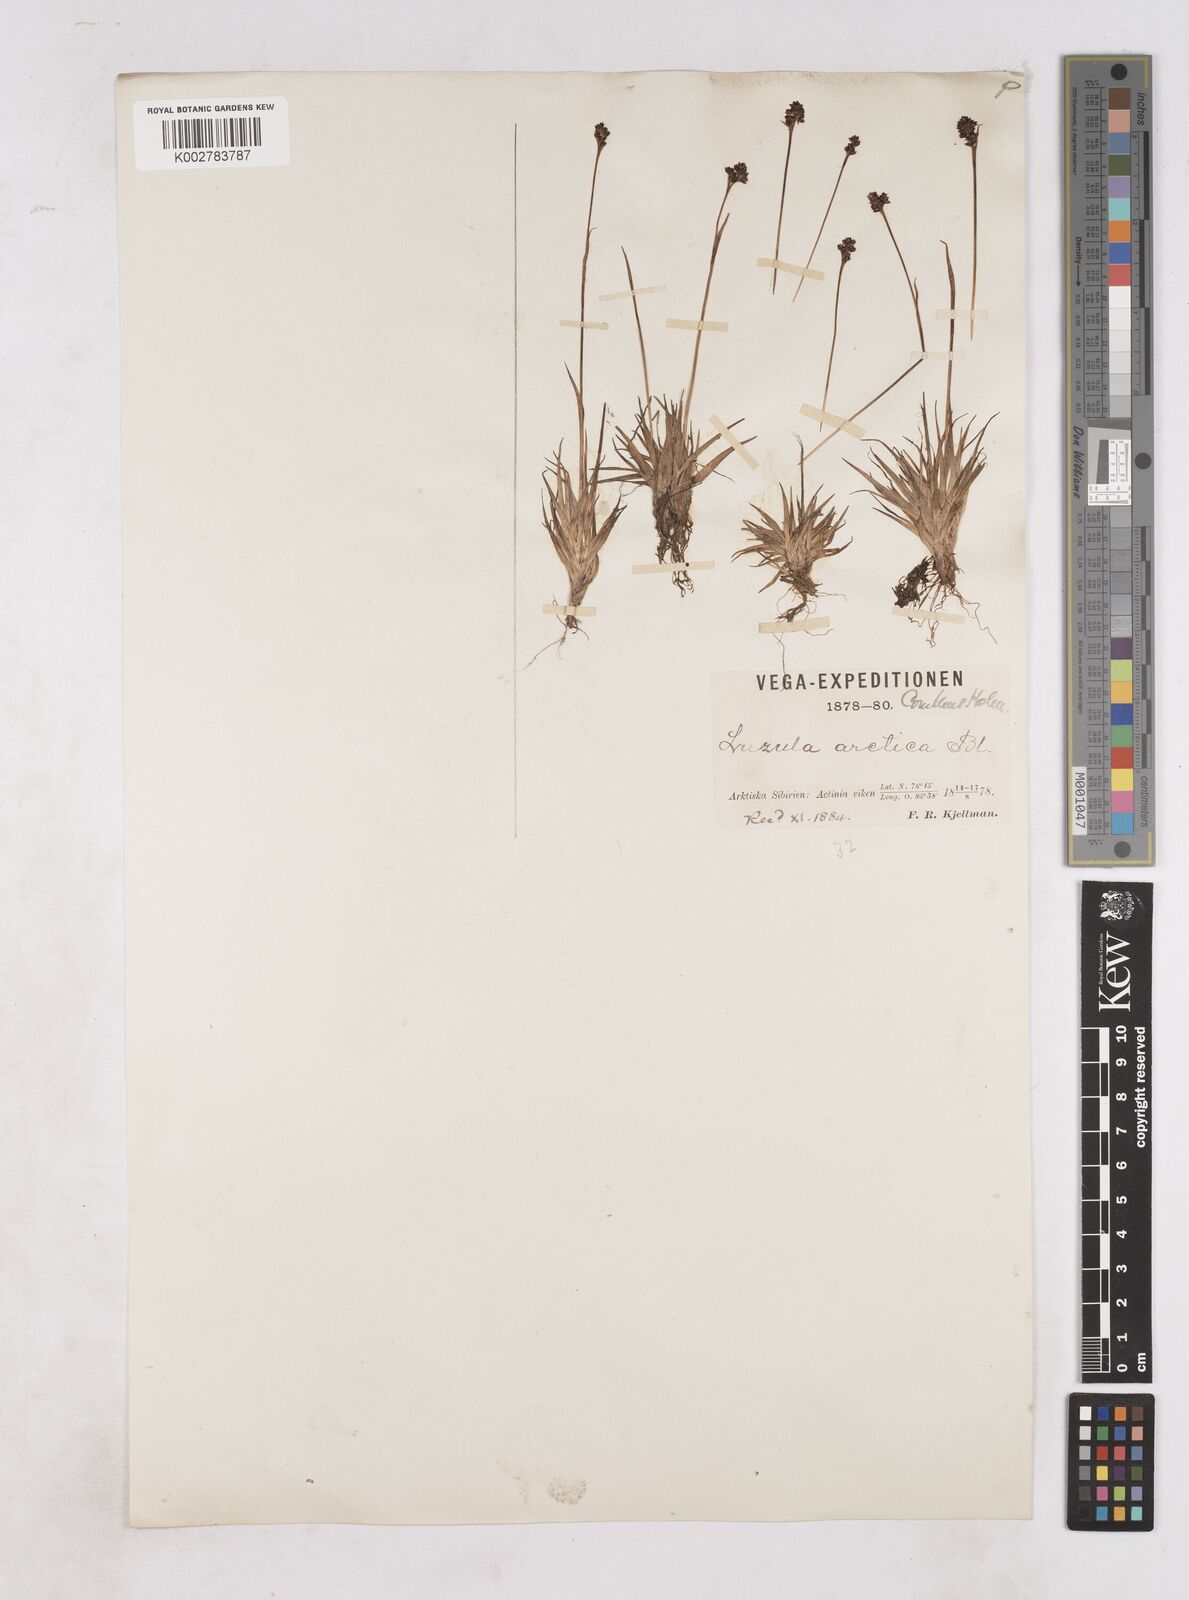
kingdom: Plantae
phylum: Tracheophyta
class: Liliopsida
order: Poales
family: Juncaceae
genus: Luzula
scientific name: Luzula nivalis
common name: Arctic woodrush
